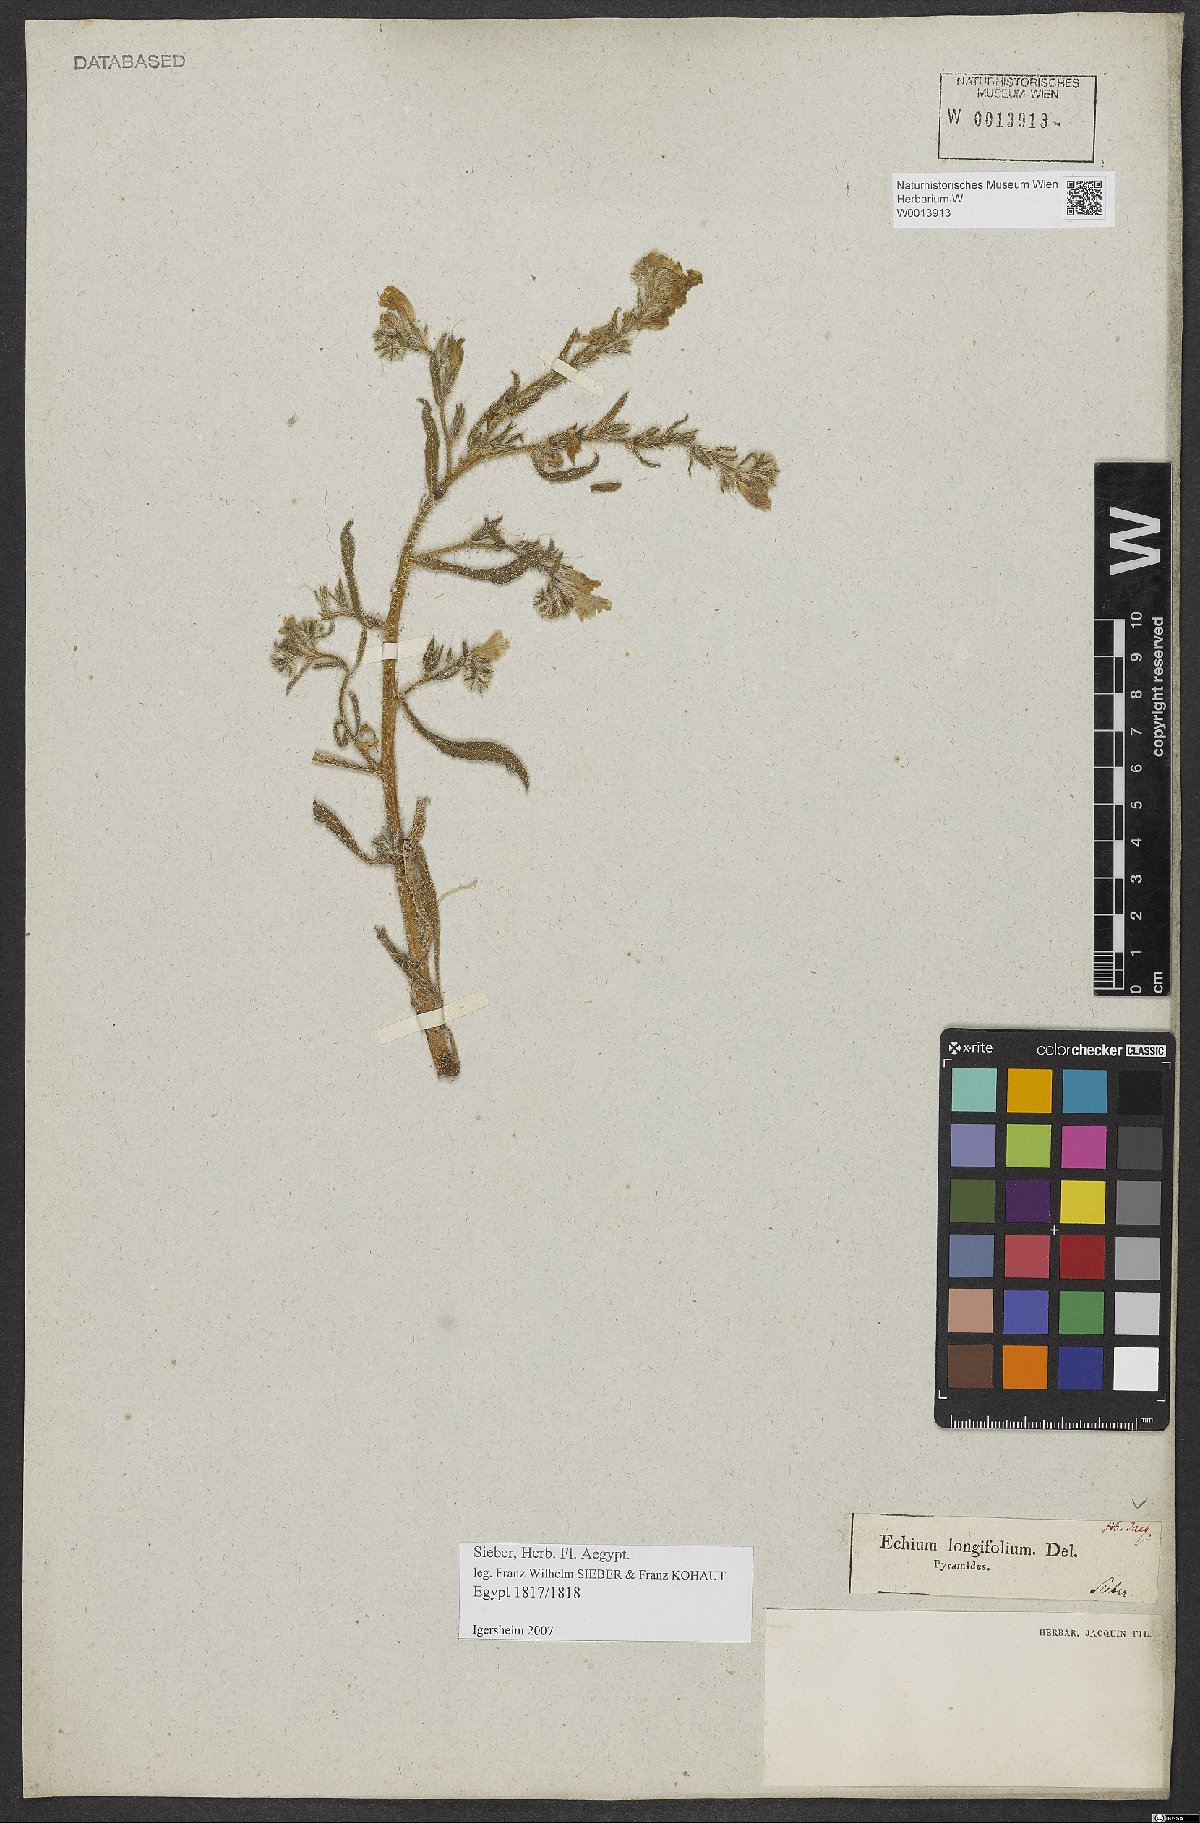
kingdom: Plantae
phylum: Tracheophyta
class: Magnoliopsida
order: Boraginales
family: Boraginaceae
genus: Echium
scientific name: Echium longifolium
